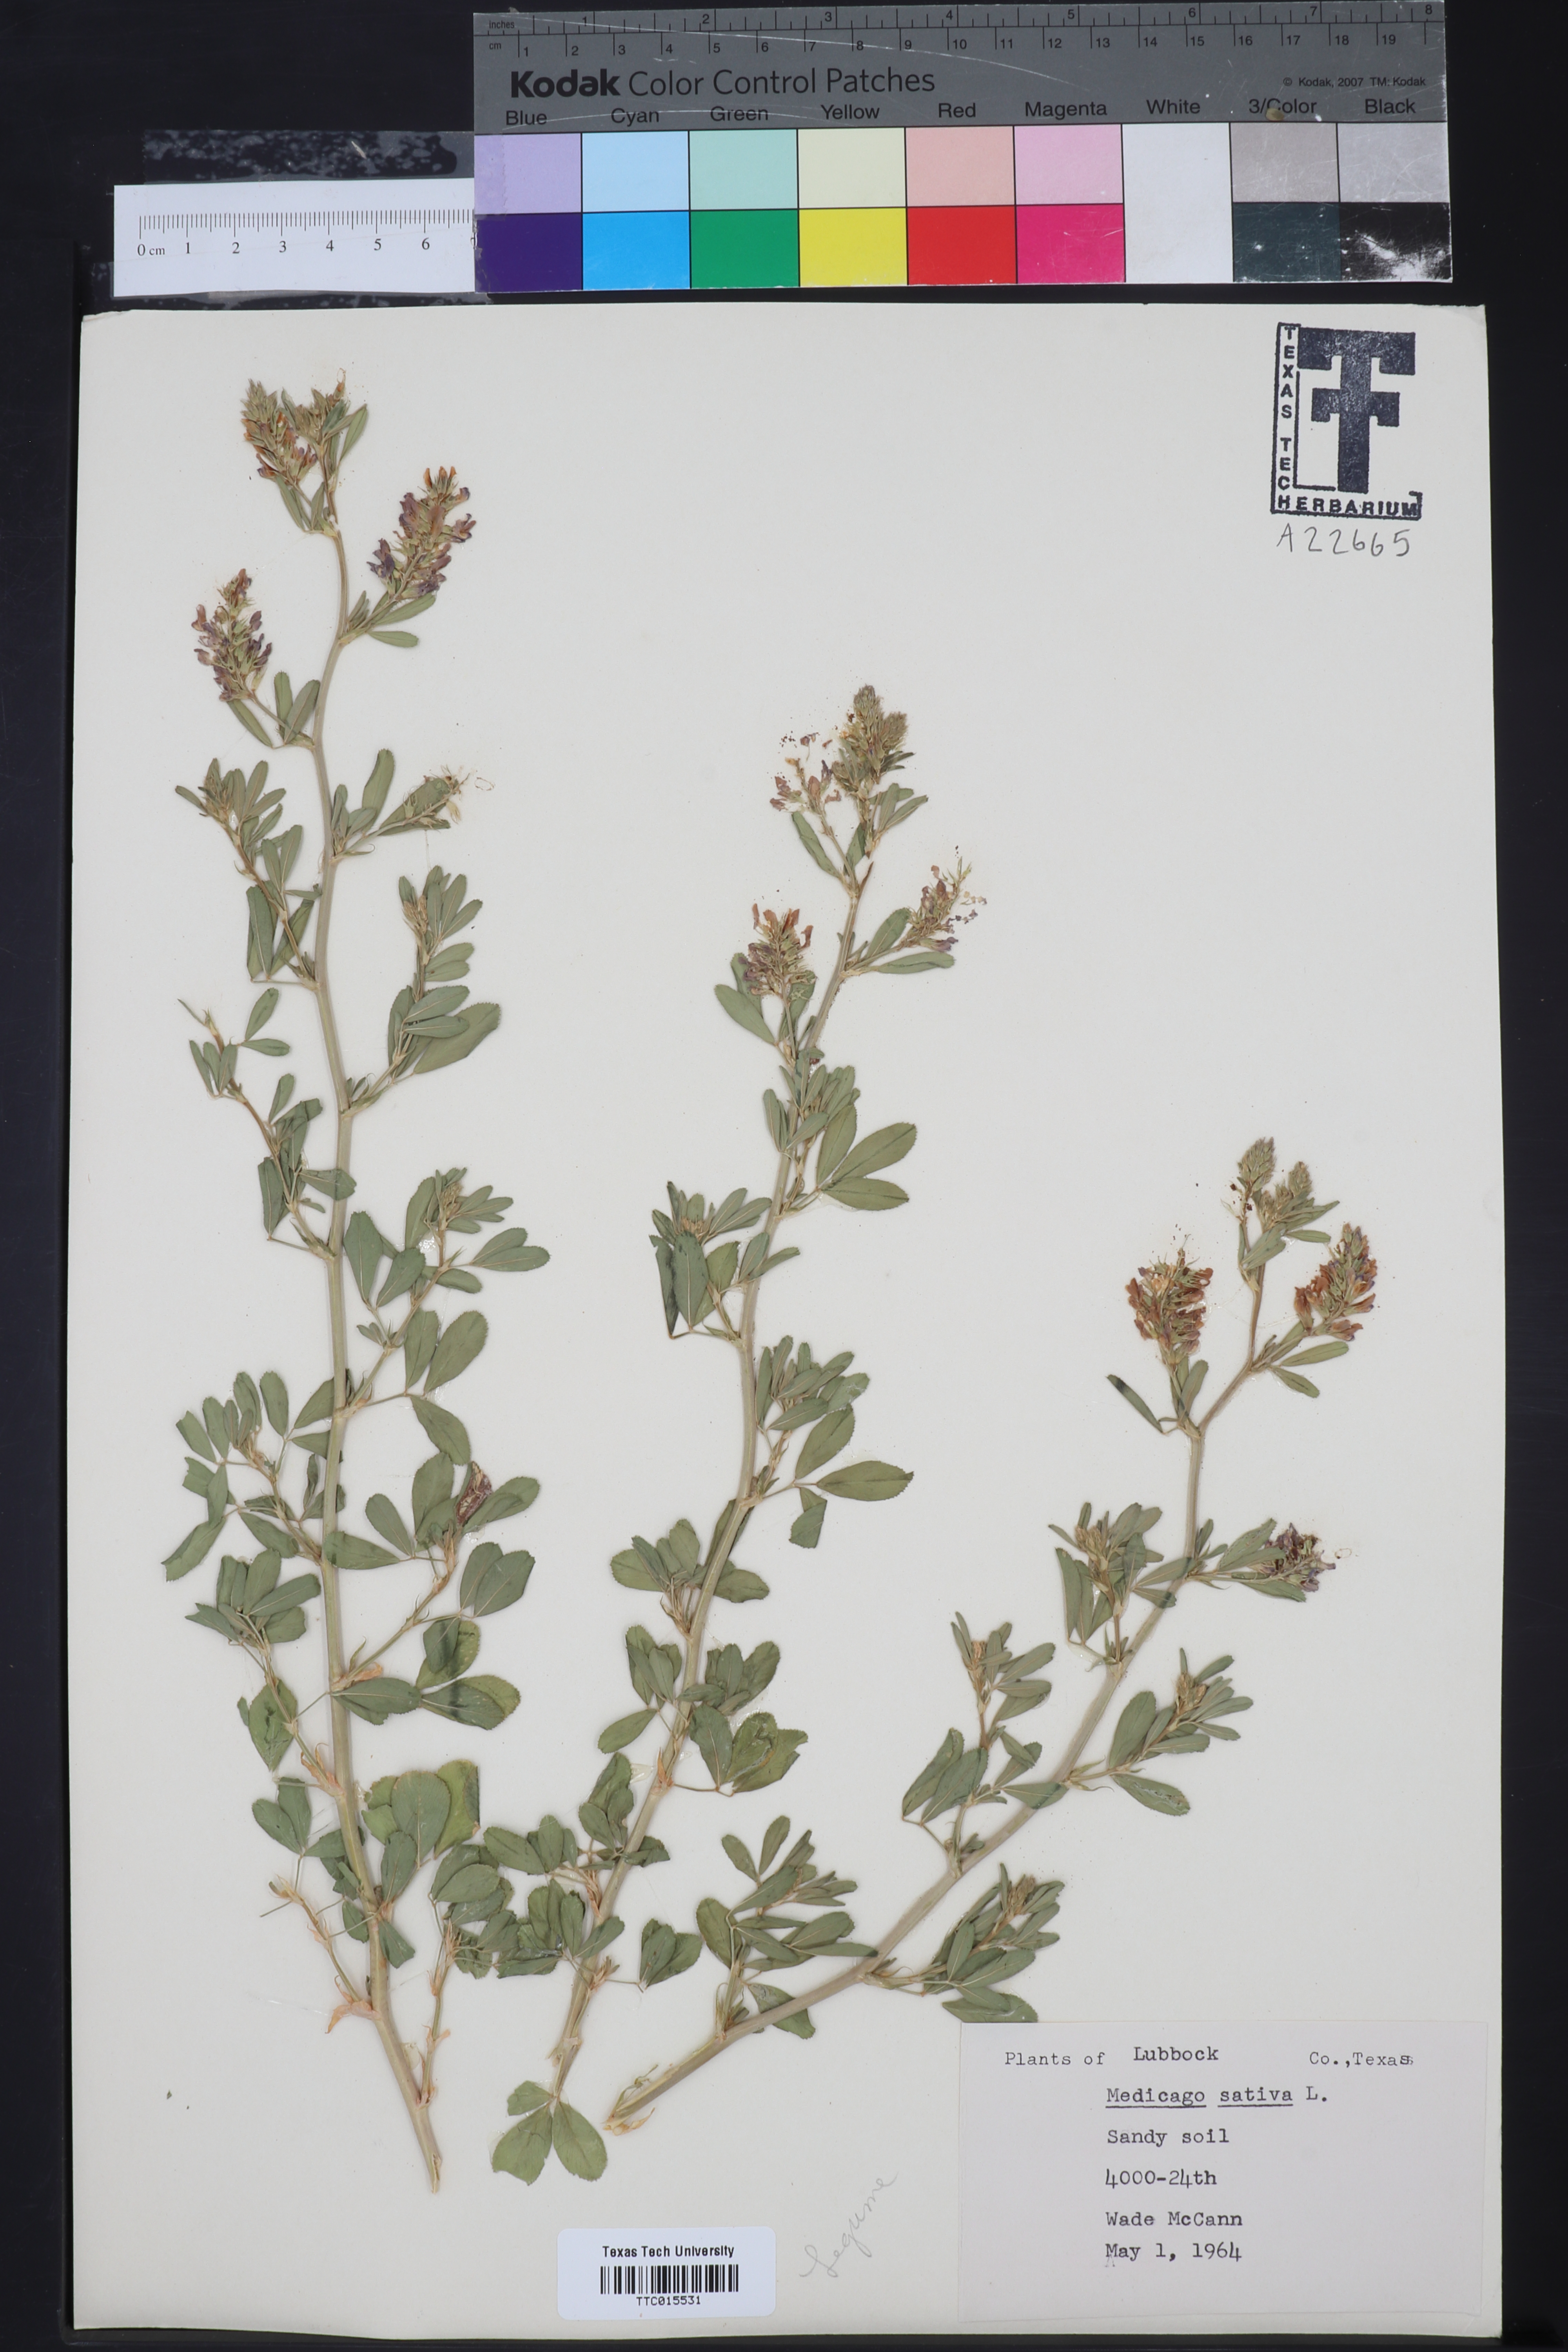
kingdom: Plantae
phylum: Tracheophyta
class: Magnoliopsida
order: Fabales
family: Fabaceae
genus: Medicago
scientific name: Medicago sativa
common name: Alfalfa
